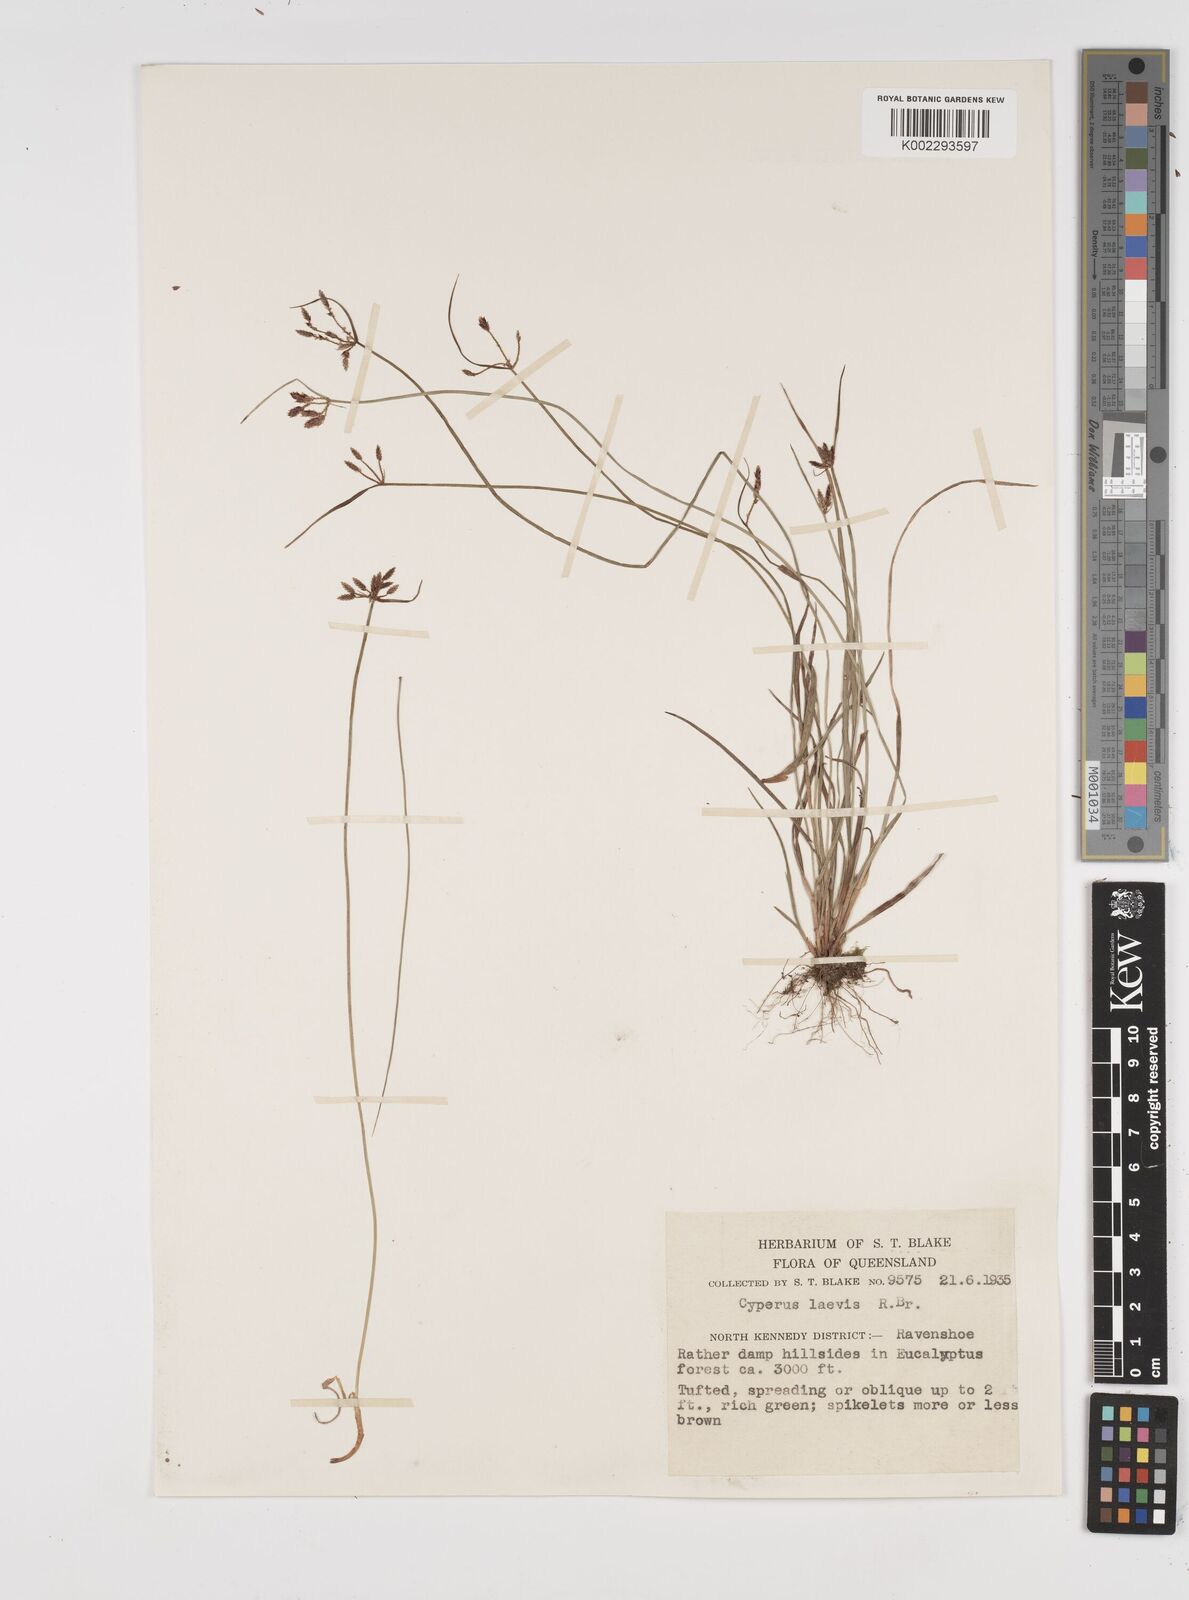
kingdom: Plantae
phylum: Tracheophyta
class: Liliopsida
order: Poales
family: Cyperaceae
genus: Cyperus
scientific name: Cyperus laevis
